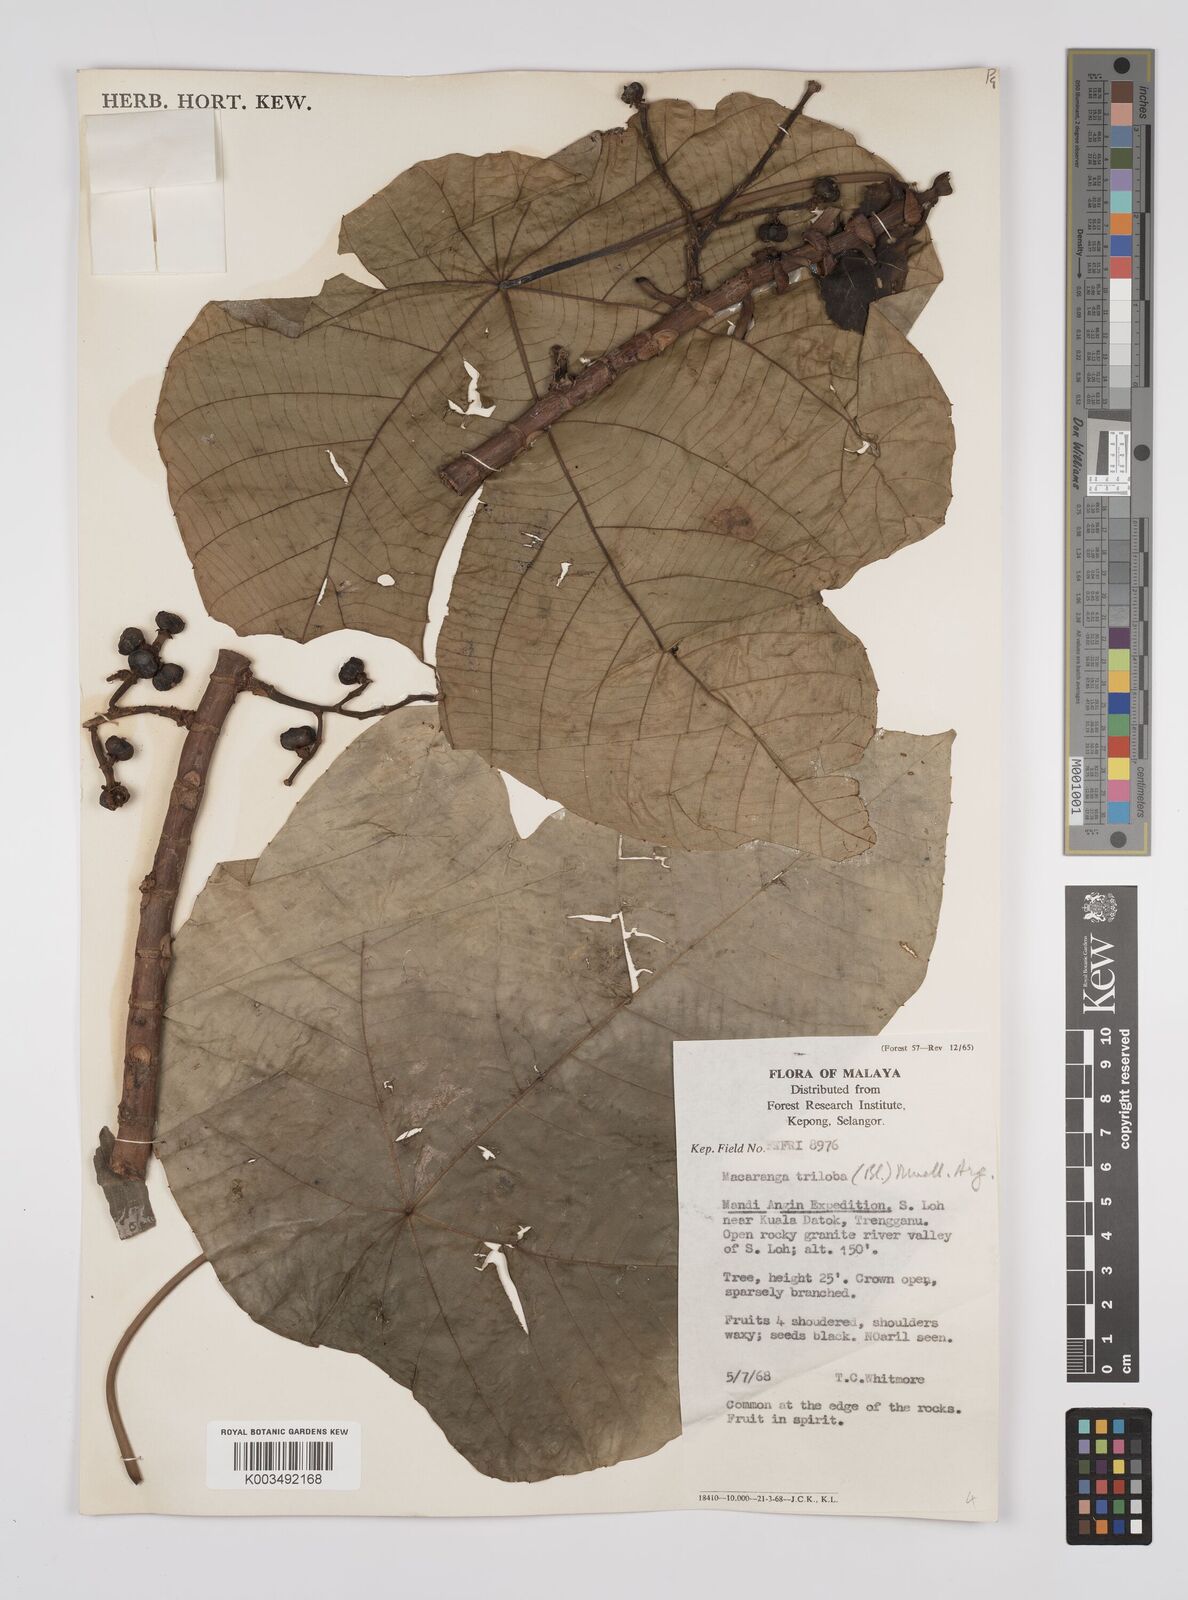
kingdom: Plantae
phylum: Tracheophyta
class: Magnoliopsida
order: Malpighiales
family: Euphorbiaceae
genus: Macaranga
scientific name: Macaranga triloba
